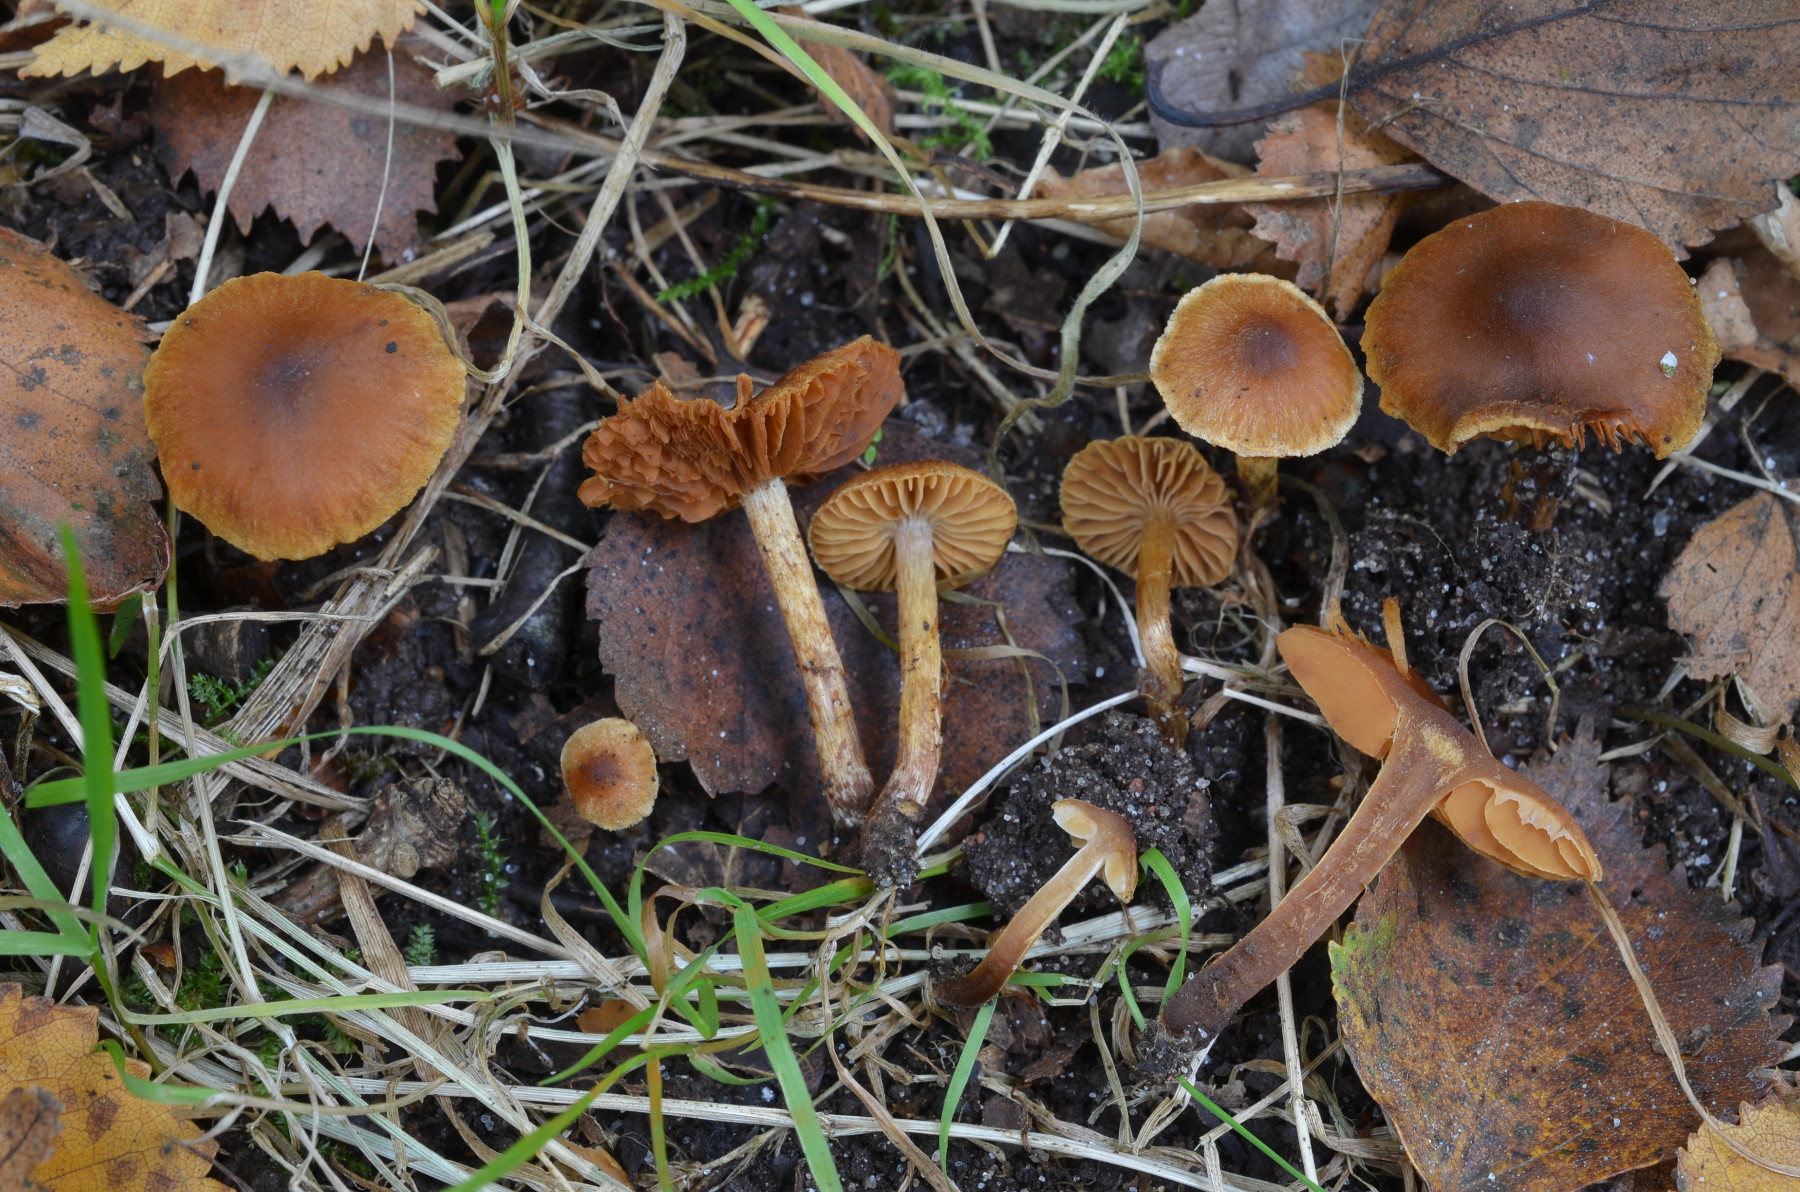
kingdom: Fungi
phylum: Basidiomycota
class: Agaricomycetes
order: Agaricales
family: Cortinariaceae
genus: Cortinarius
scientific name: Cortinarius saniosus
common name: gultrævlet slørhat
